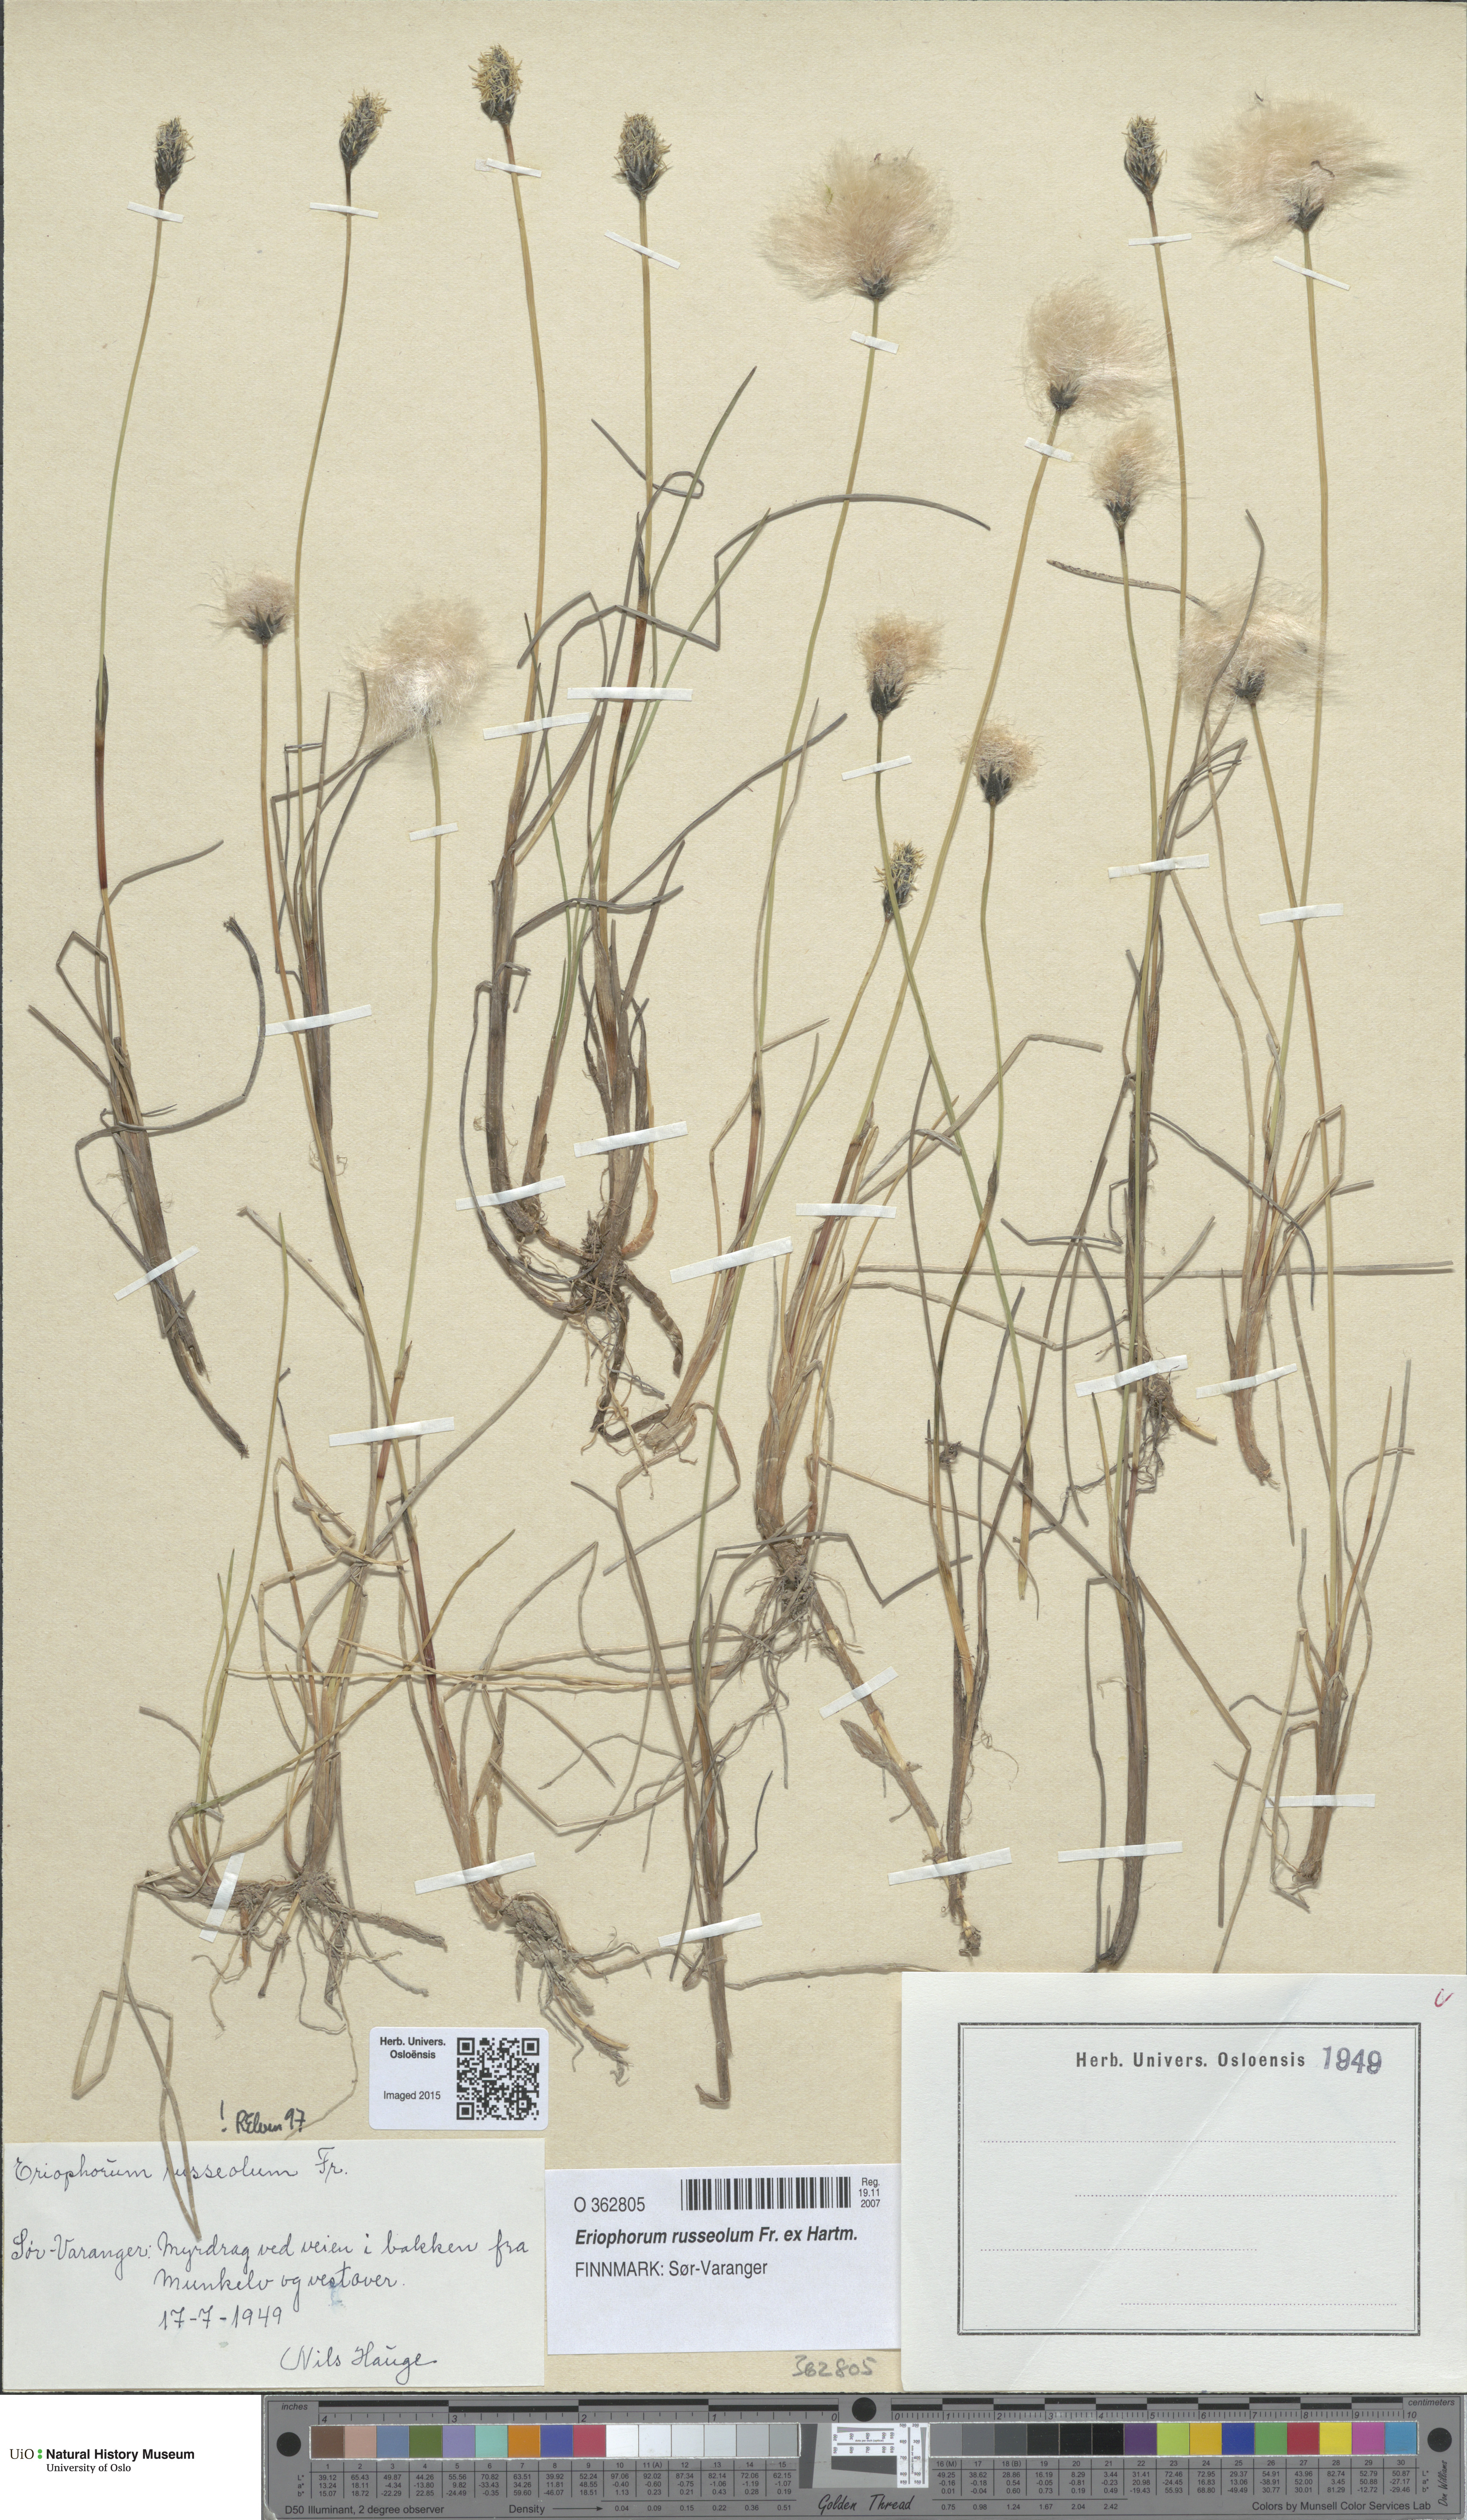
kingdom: Plantae
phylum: Tracheophyta
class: Liliopsida
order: Poales
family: Cyperaceae
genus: Eriophorum
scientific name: Eriophorum russeolum
